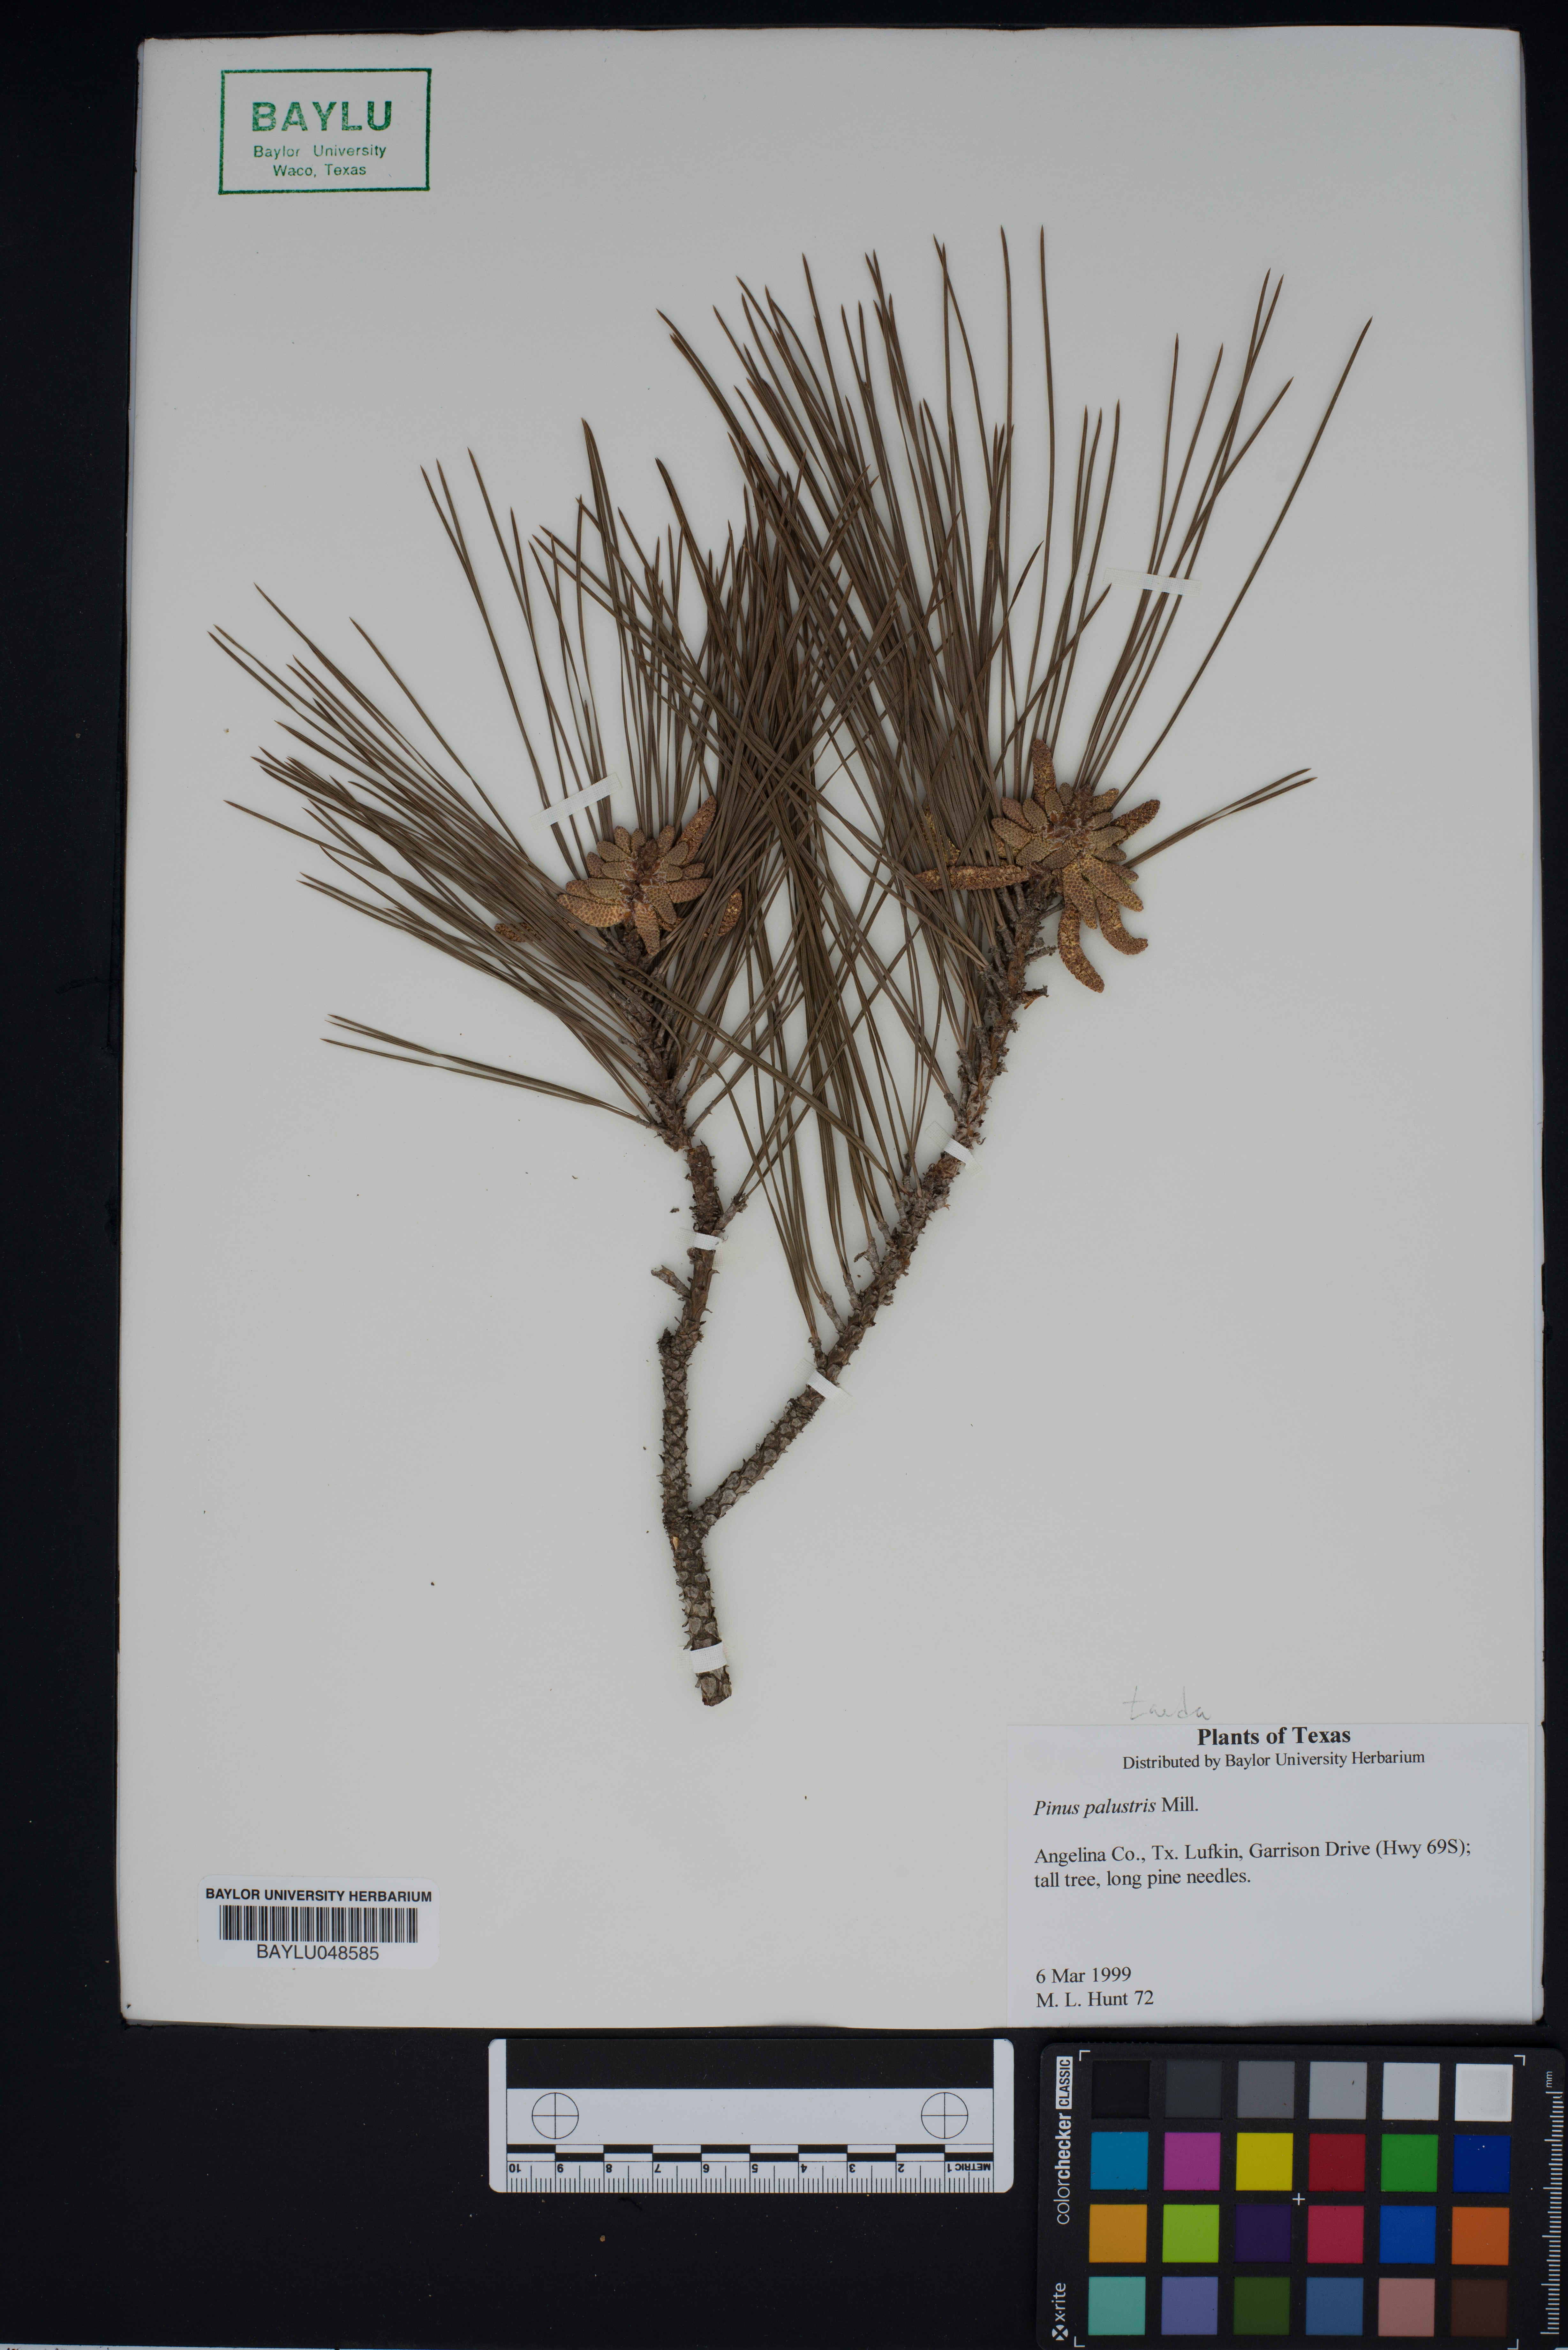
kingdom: Plantae
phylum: Tracheophyta
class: Pinopsida
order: Pinales
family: Pinaceae
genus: Pinus
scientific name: Pinus palustris
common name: Longleaf pine
